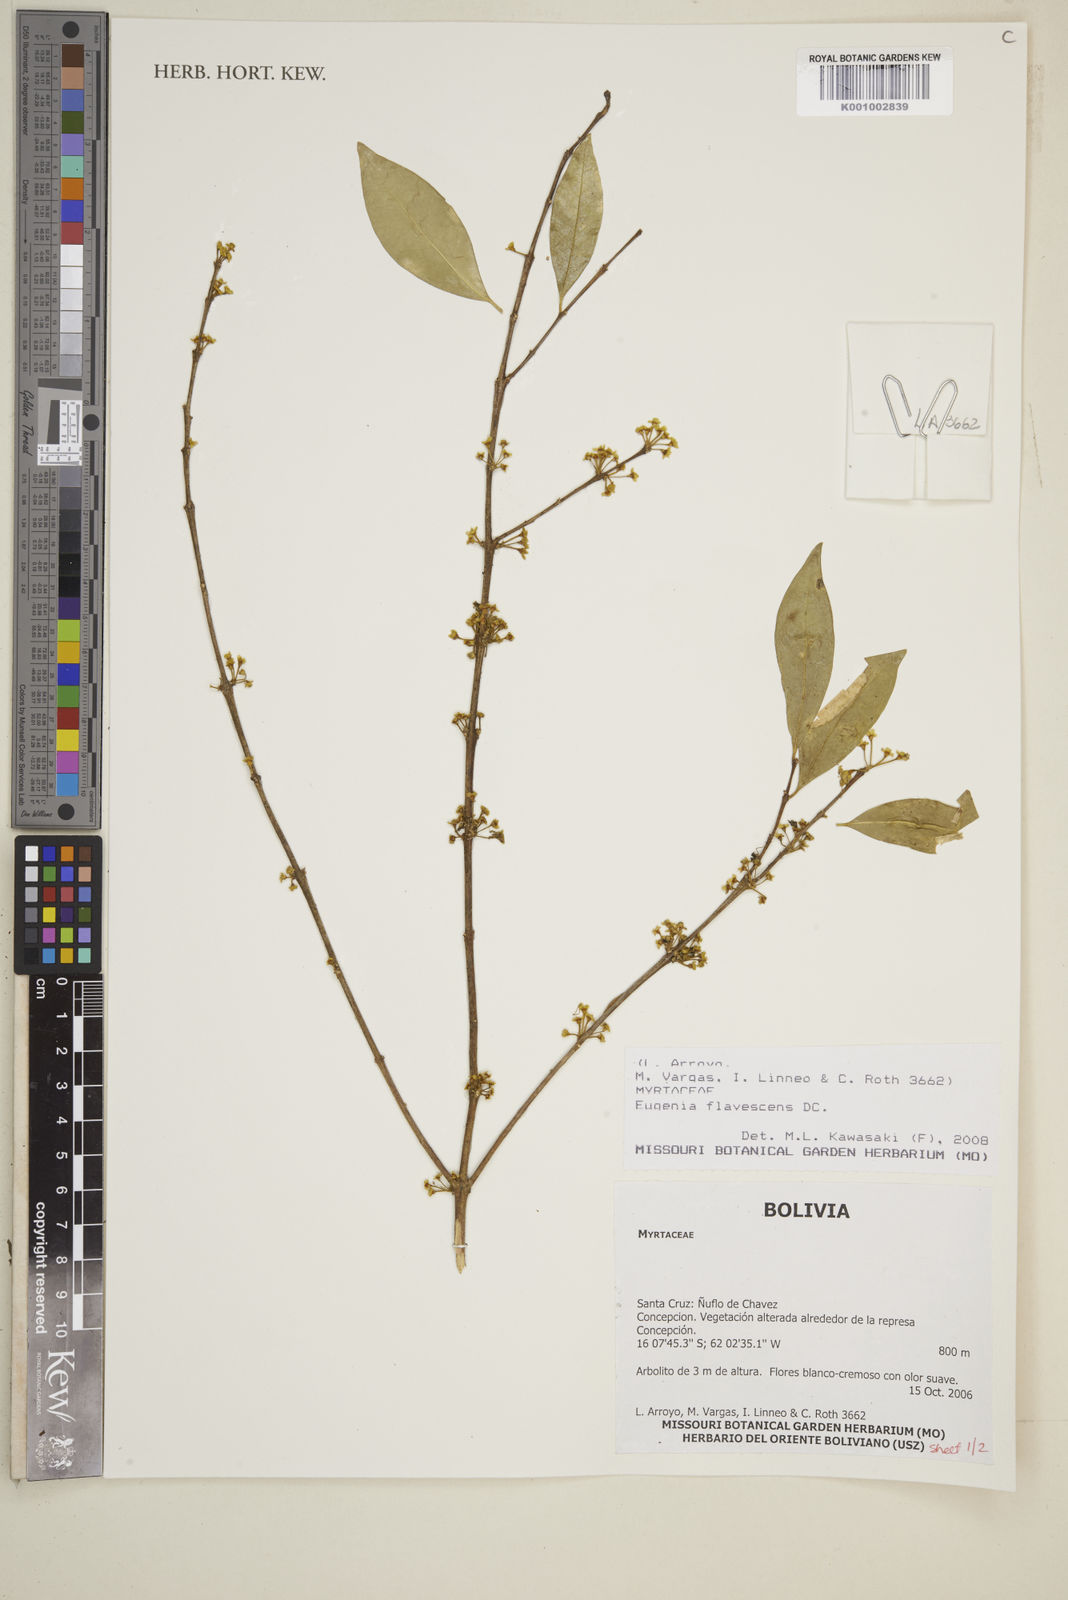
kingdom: Plantae
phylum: Tracheophyta
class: Magnoliopsida
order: Myrtales
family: Myrtaceae
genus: Eugenia
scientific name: Eugenia flavescens
